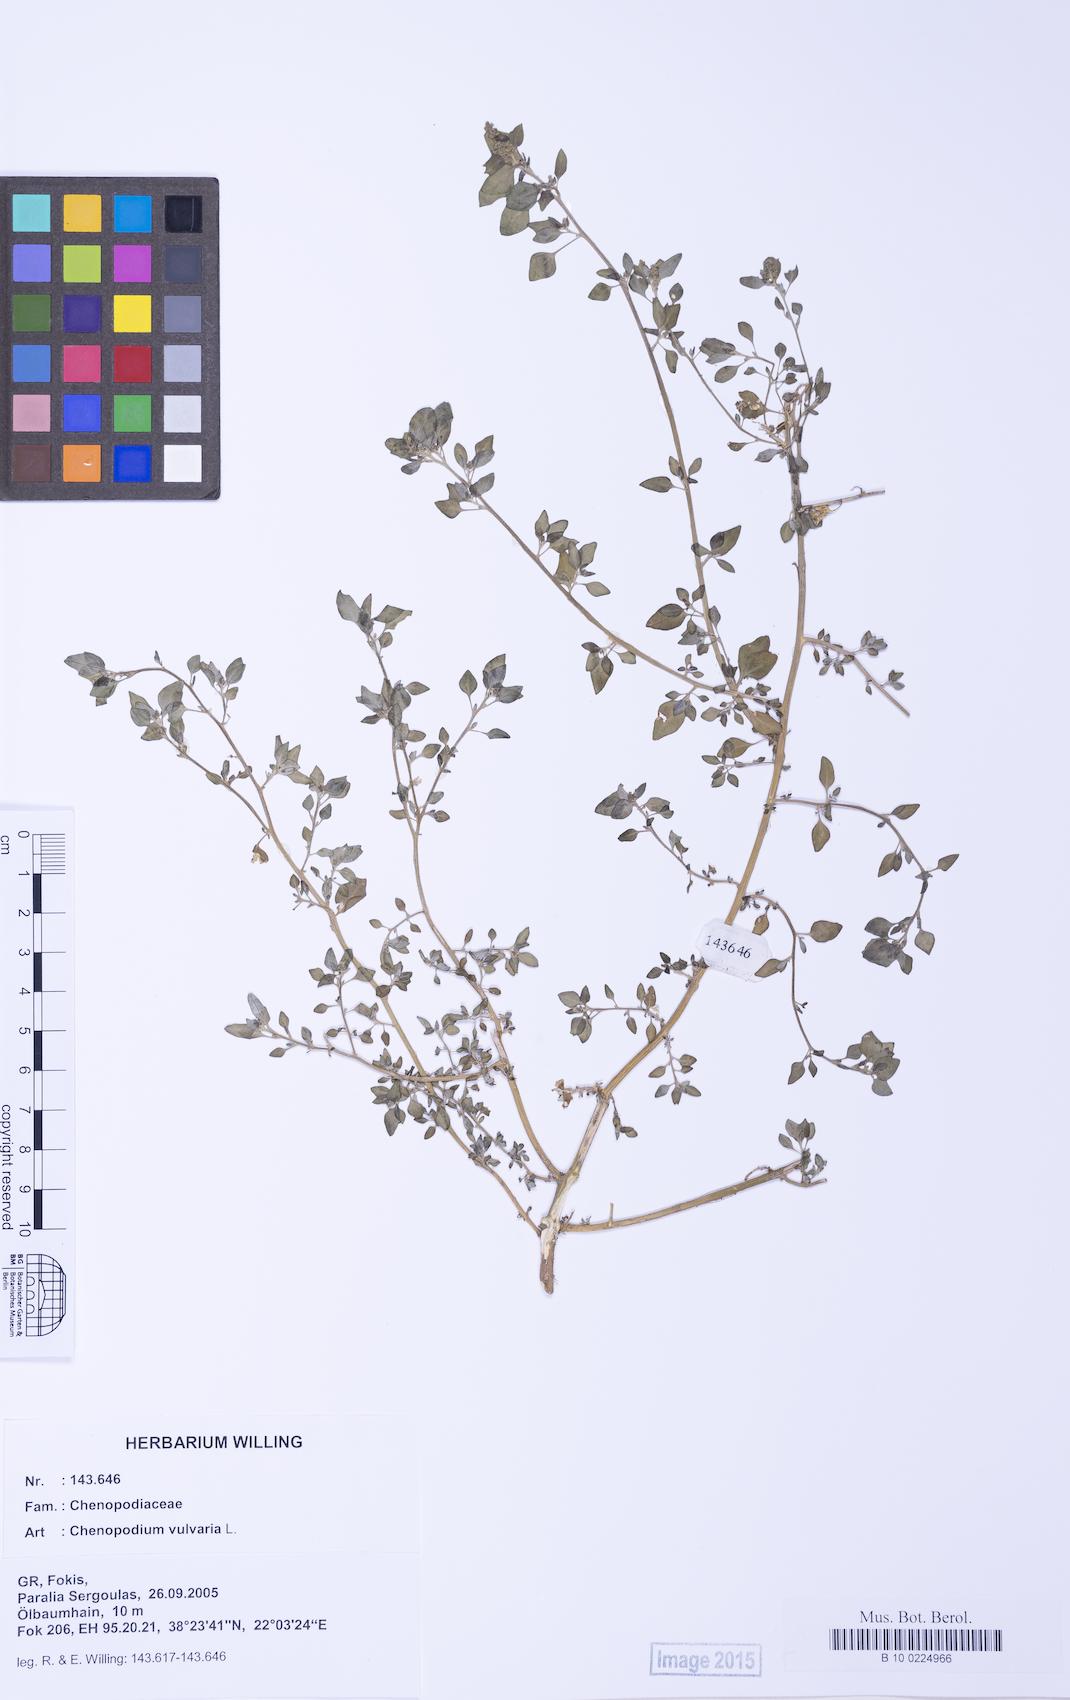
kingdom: Plantae
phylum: Tracheophyta
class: Magnoliopsida
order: Caryophyllales
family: Amaranthaceae
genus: Chenopodium
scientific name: Chenopodium vulvaria
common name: Stinking goosefoot
